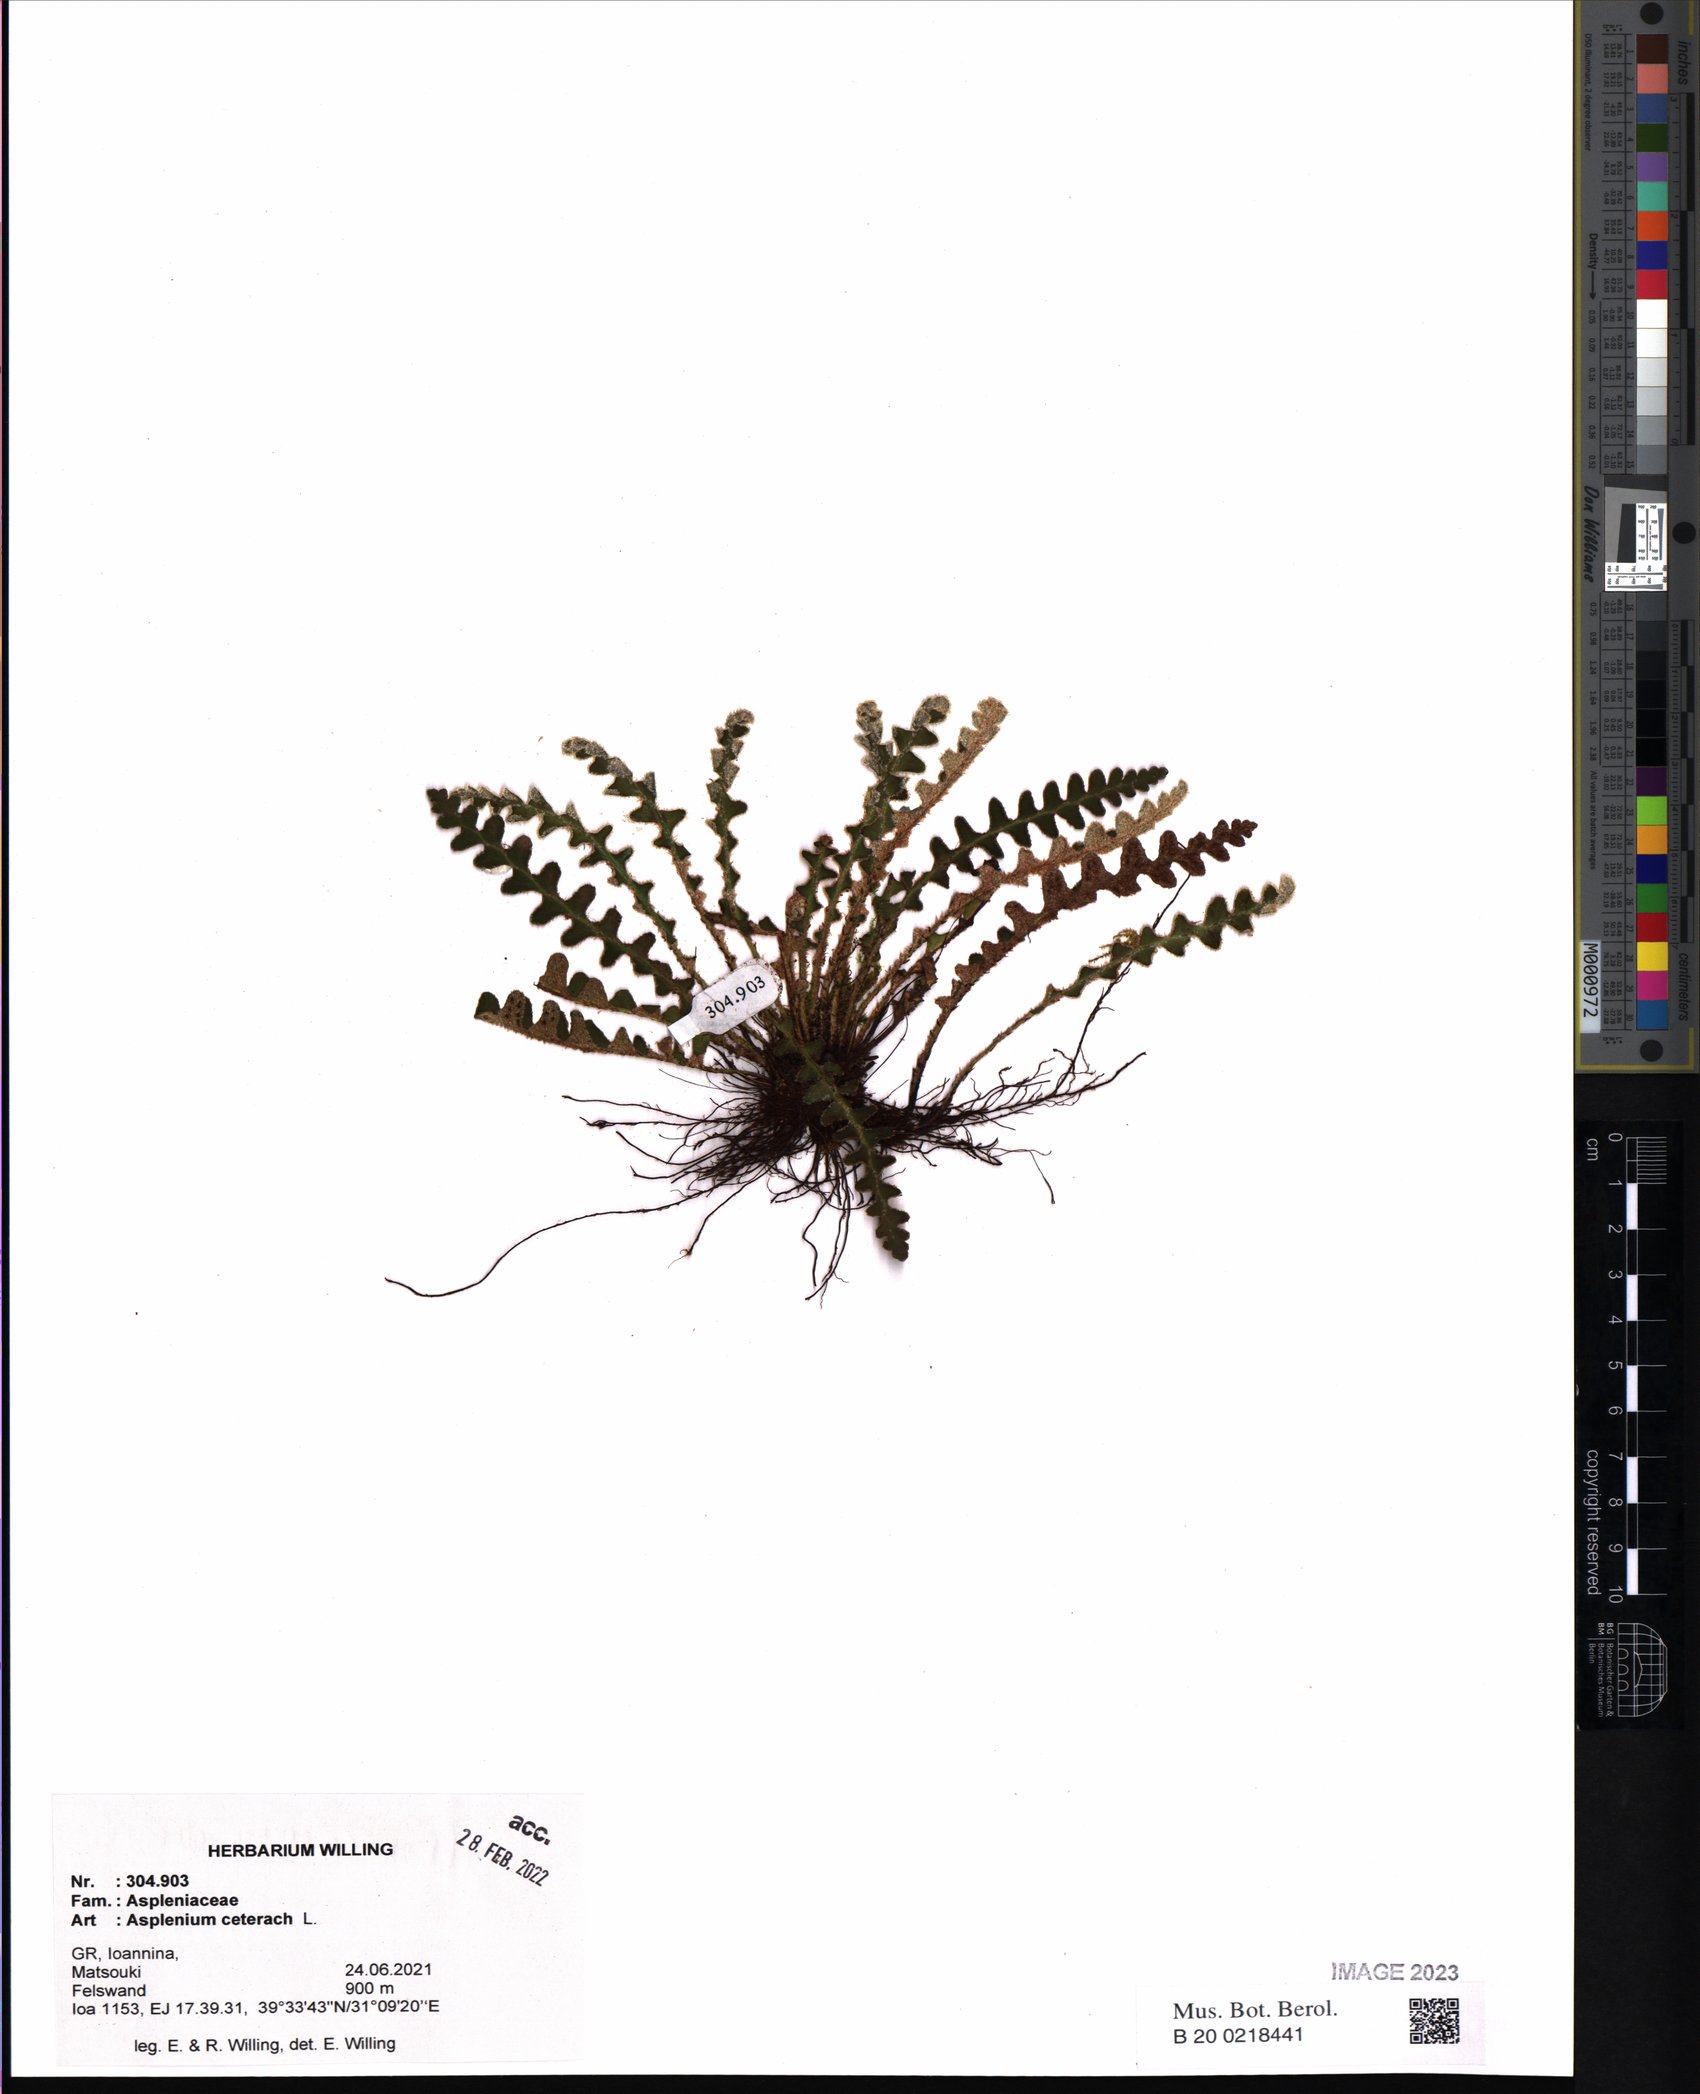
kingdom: Plantae
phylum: Tracheophyta
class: Polypodiopsida
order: Polypodiales
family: Aspleniaceae
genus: Asplenium
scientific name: Asplenium ceterach
